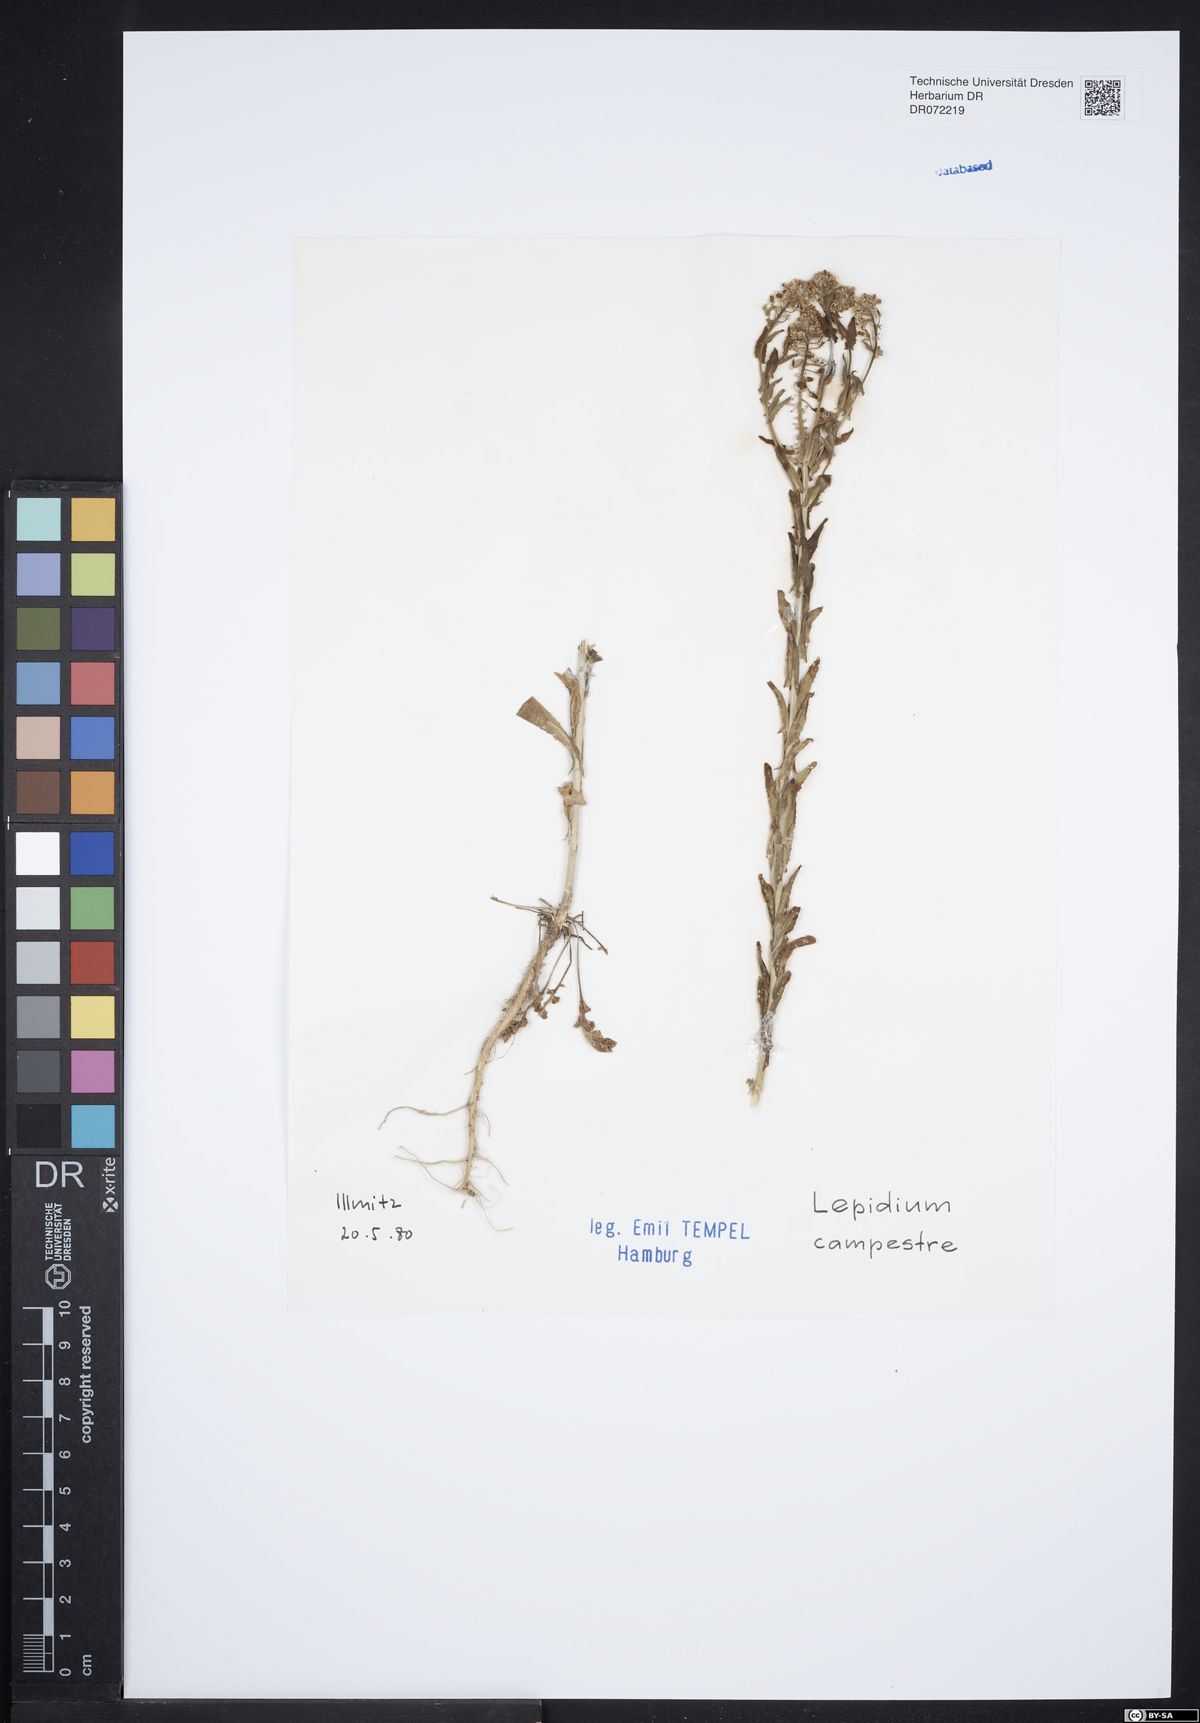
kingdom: Plantae
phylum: Tracheophyta
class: Magnoliopsida
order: Brassicales
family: Brassicaceae
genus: Lepidium
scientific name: Lepidium campestre
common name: Field pepperwort
